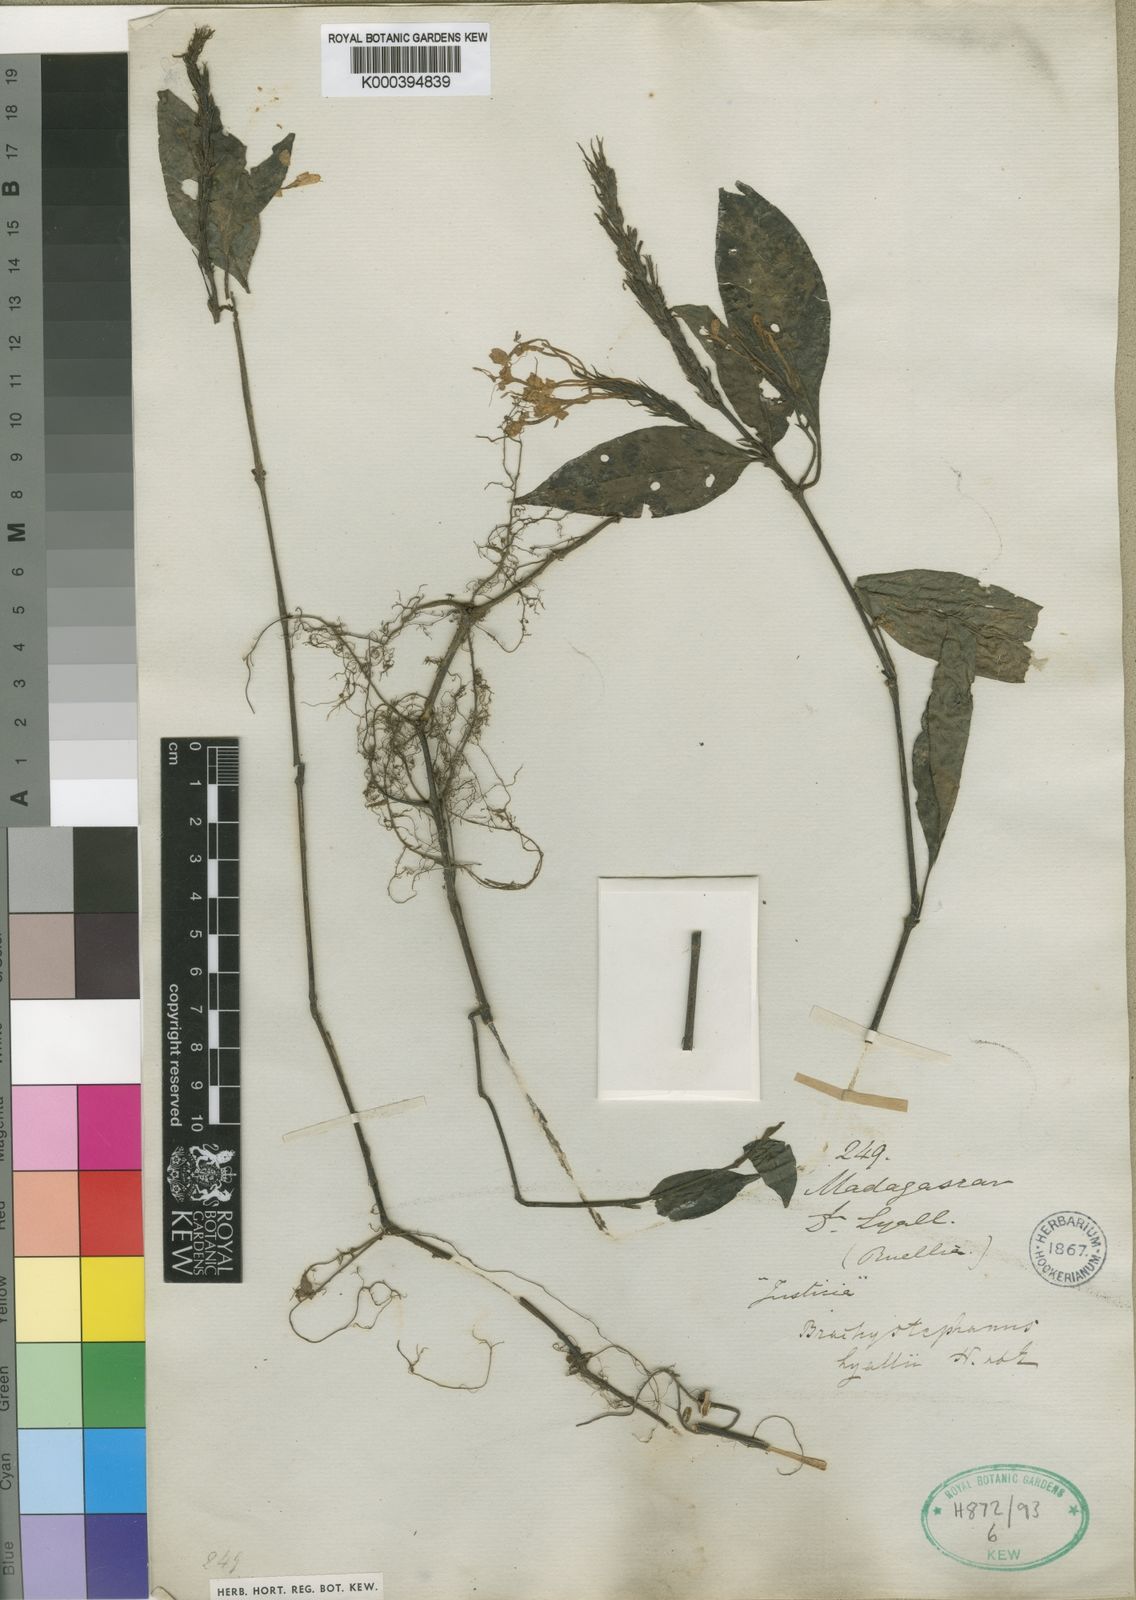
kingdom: Plantae
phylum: Tracheophyta
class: Magnoliopsida
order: Lamiales
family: Acanthaceae
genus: Brachystephanus
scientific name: Brachystephanus lyallii
